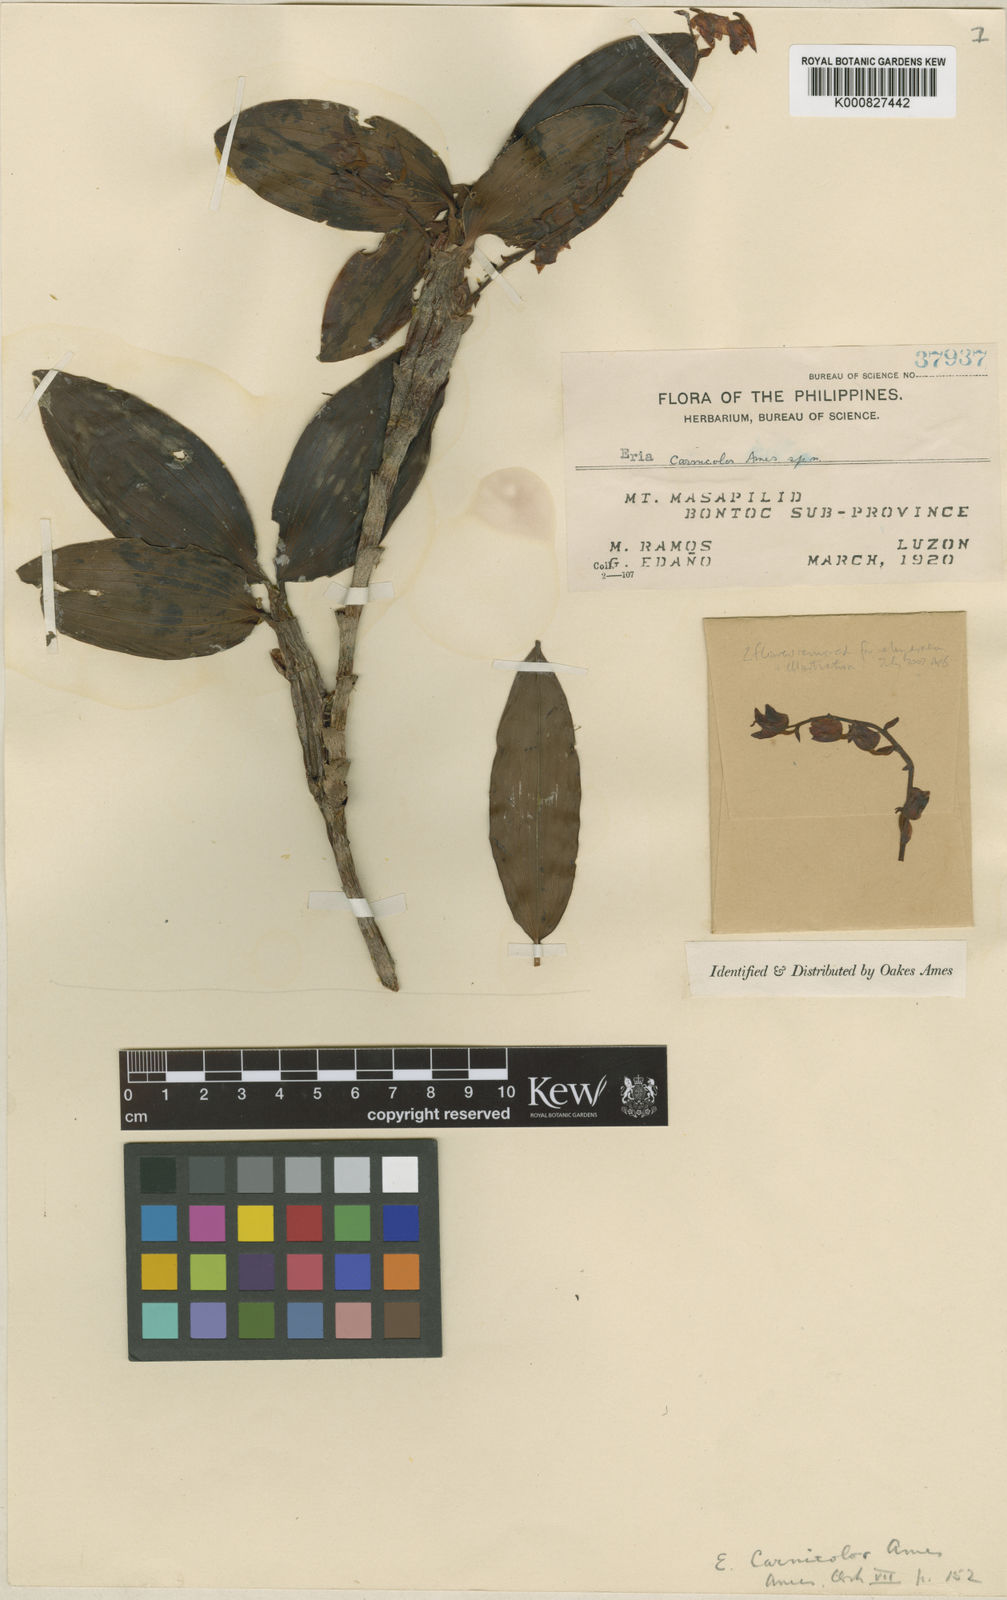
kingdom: Plantae
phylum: Tracheophyta
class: Liliopsida
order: Asparagales
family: Orchidaceae
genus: Pinalia
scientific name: Pinalia carnicolor
